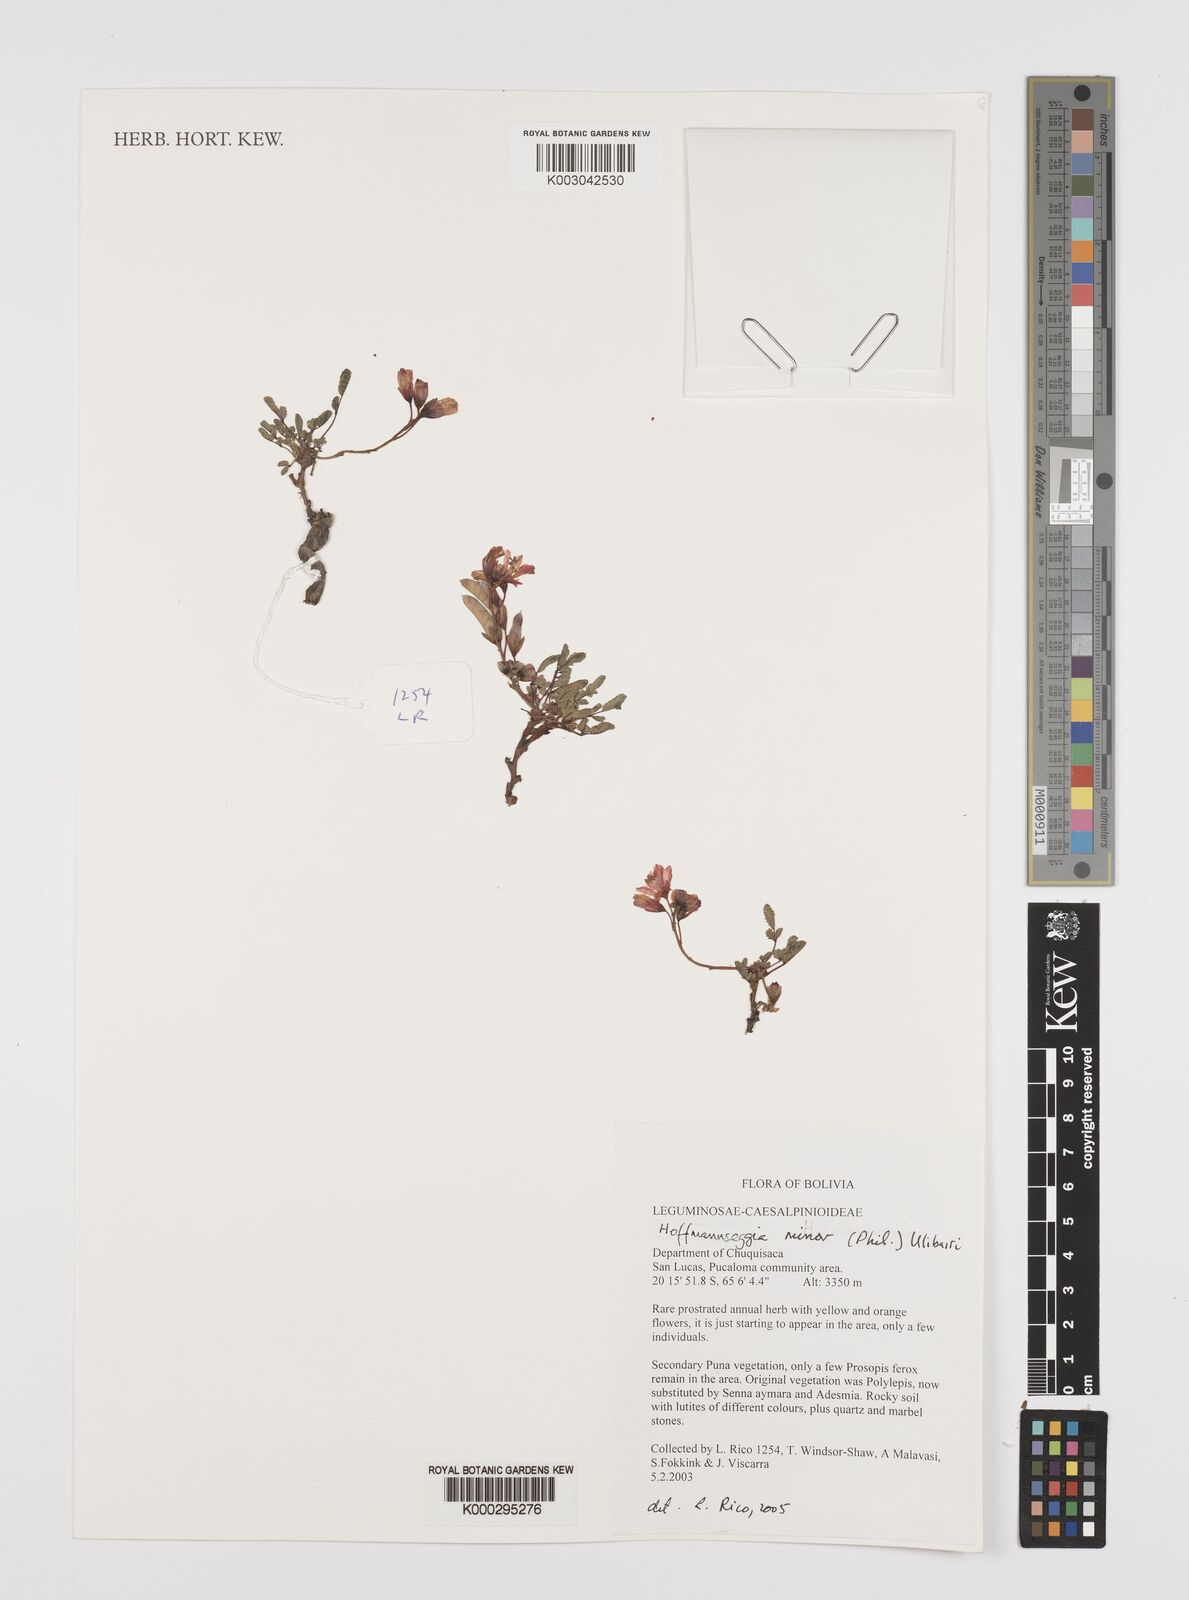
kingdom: Plantae
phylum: Tracheophyta
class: Magnoliopsida
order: Fabales
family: Fabaceae
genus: Hoffmannseggia
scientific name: Hoffmannseggia minor
